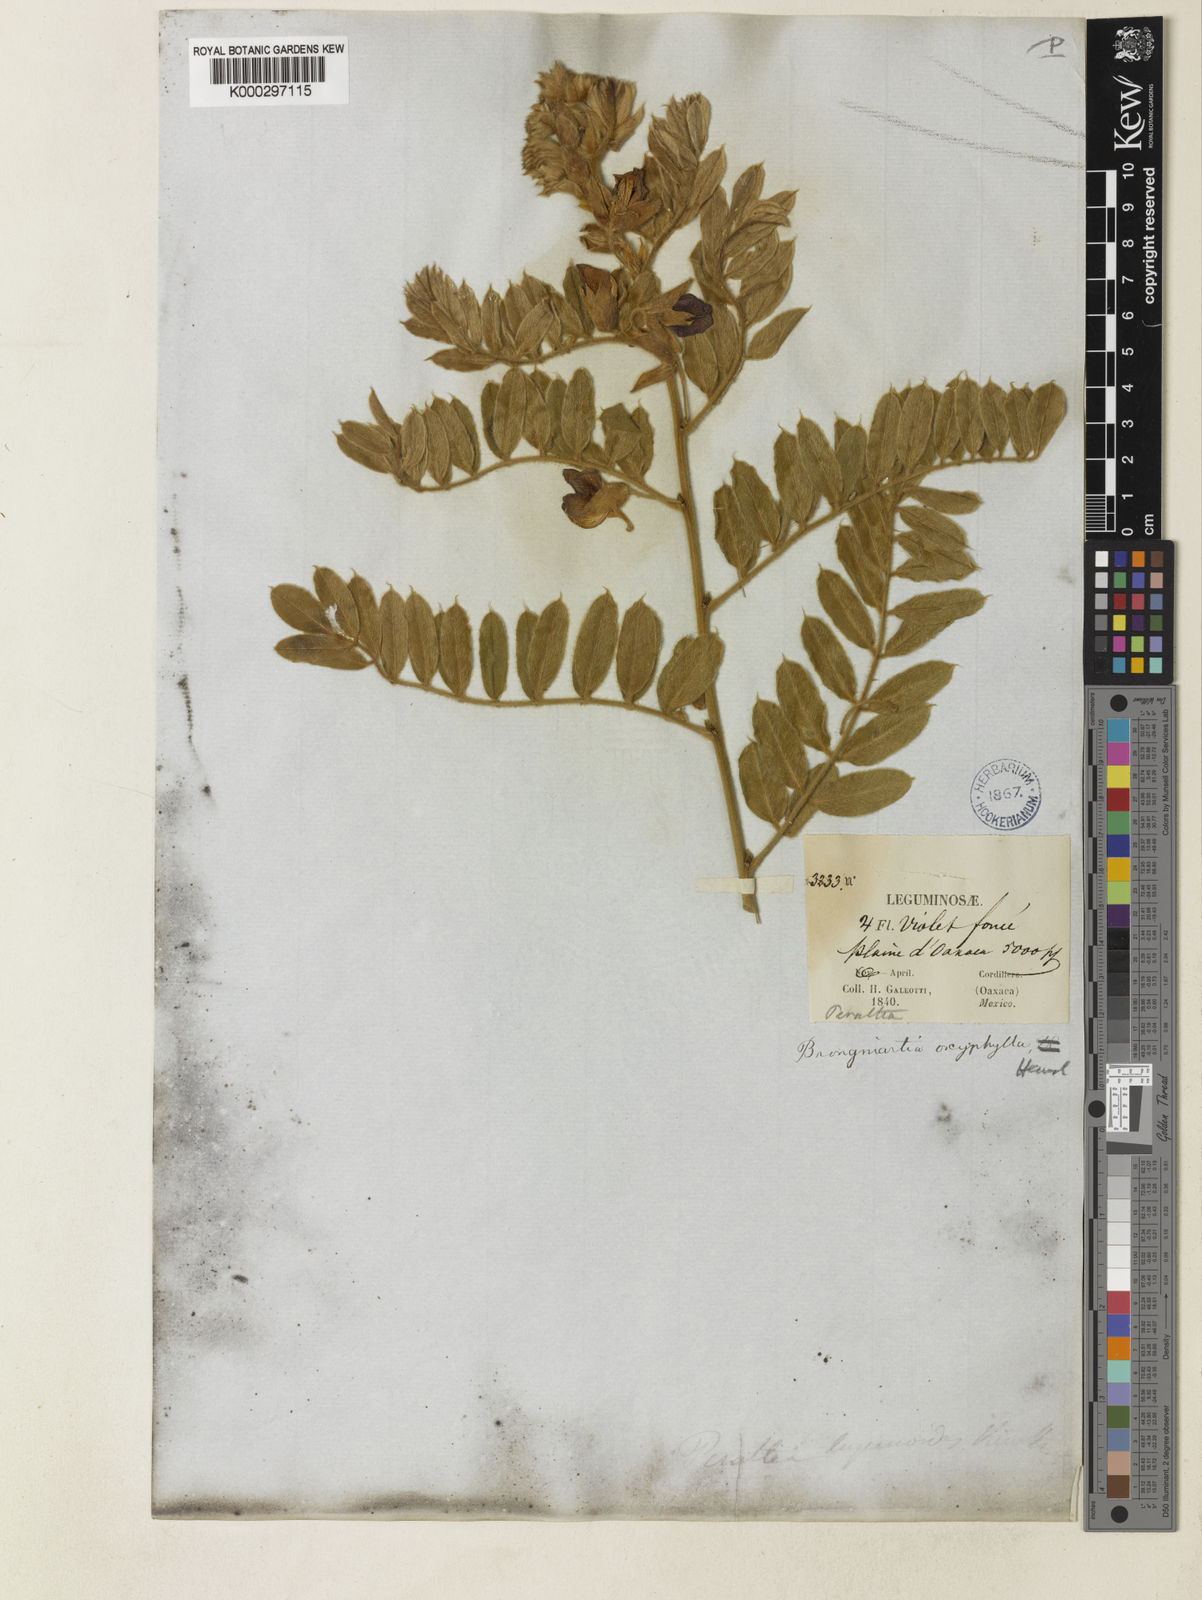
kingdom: Plantae
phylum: Tracheophyta
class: Magnoliopsida
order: Fabales
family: Fabaceae
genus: Brongniartia
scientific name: Brongniartia lupinoides
